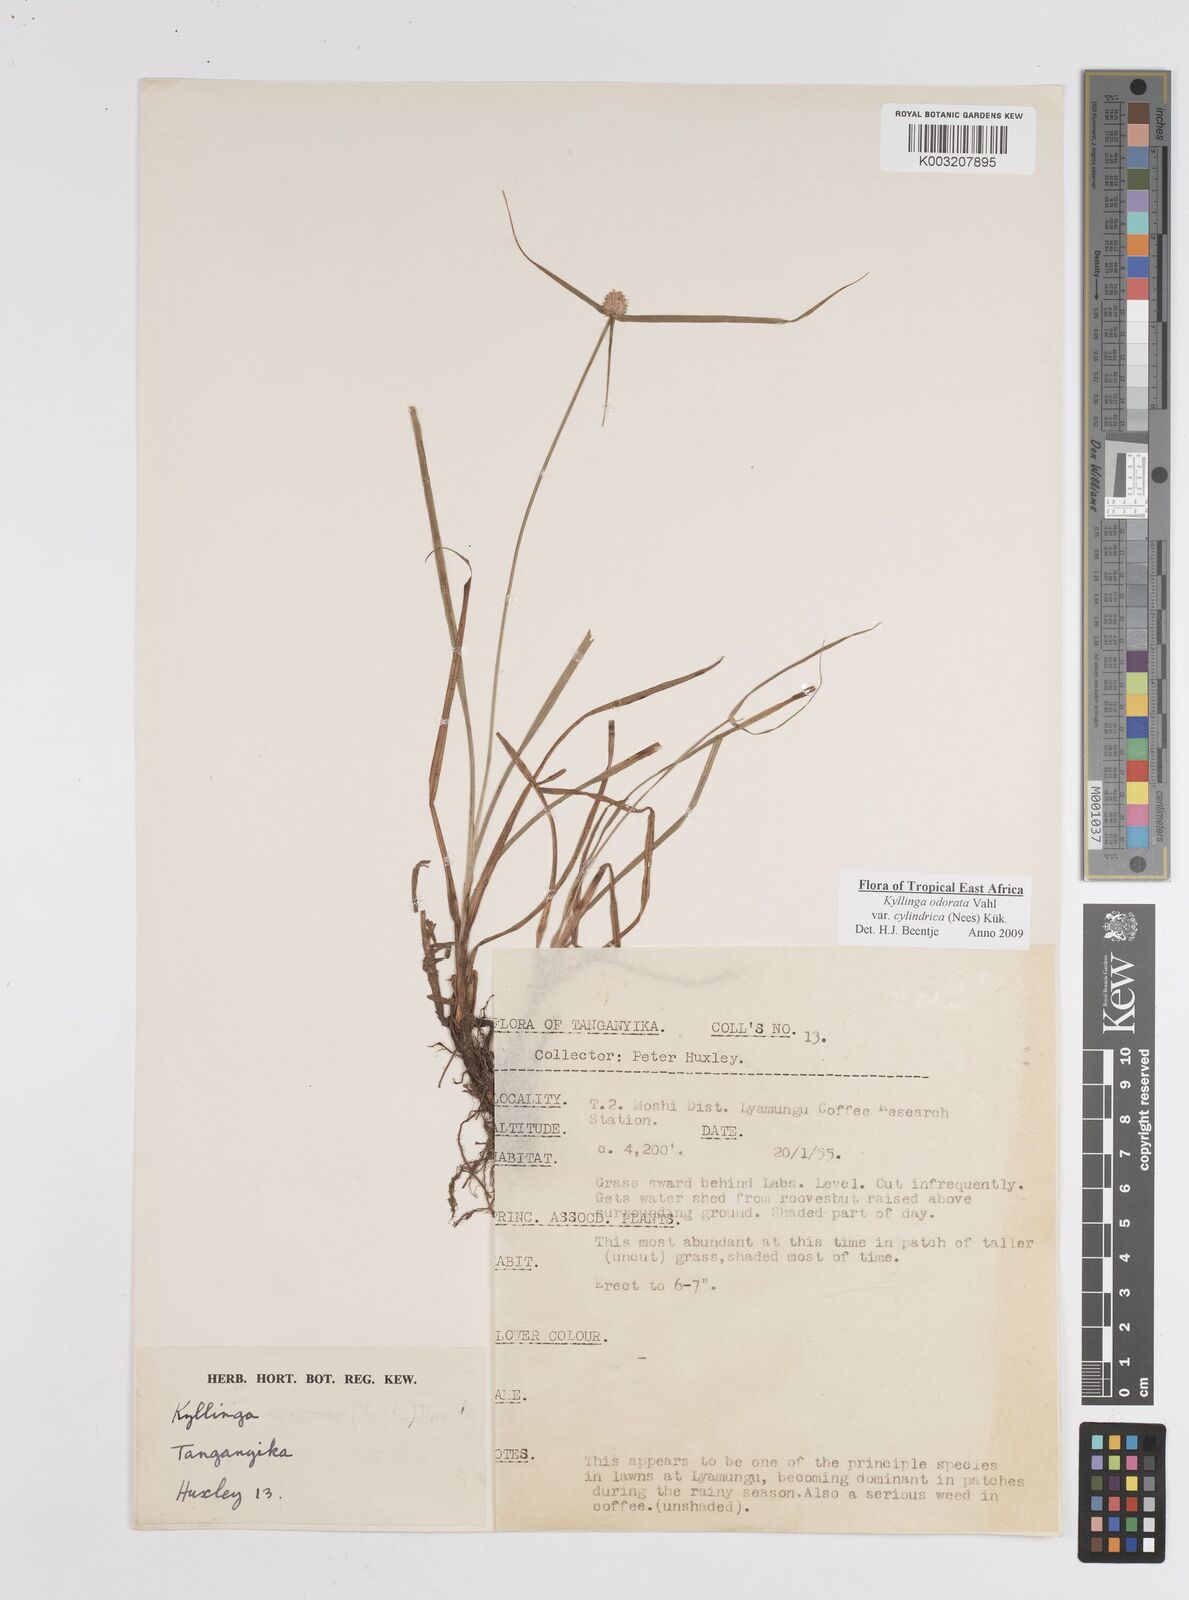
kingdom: Plantae
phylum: Tracheophyta
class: Liliopsida
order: Poales
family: Cyperaceae
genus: Cyperus
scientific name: Cyperus
